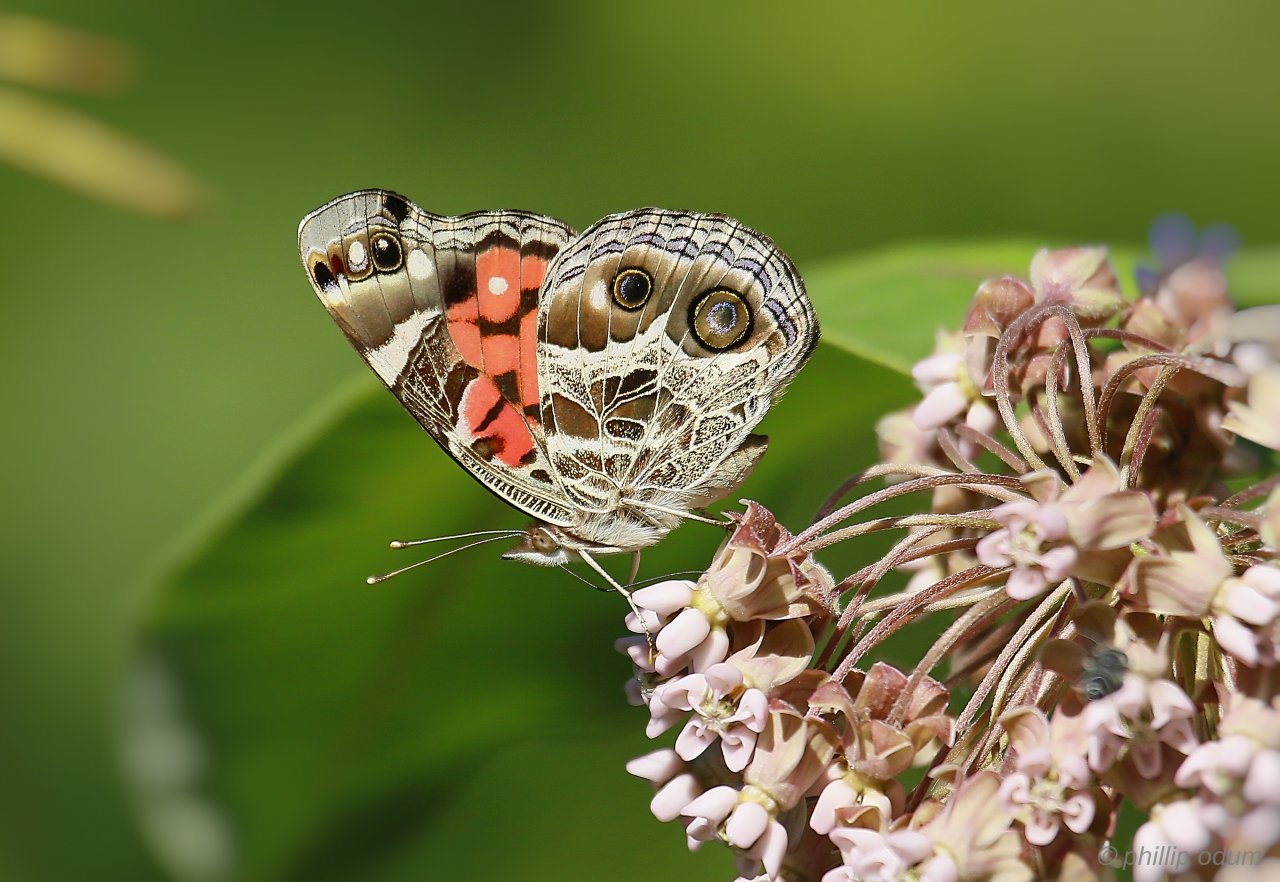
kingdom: Animalia
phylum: Arthropoda
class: Insecta
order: Lepidoptera
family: Nymphalidae
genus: Vanessa
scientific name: Vanessa virginiensis
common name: American Lady
